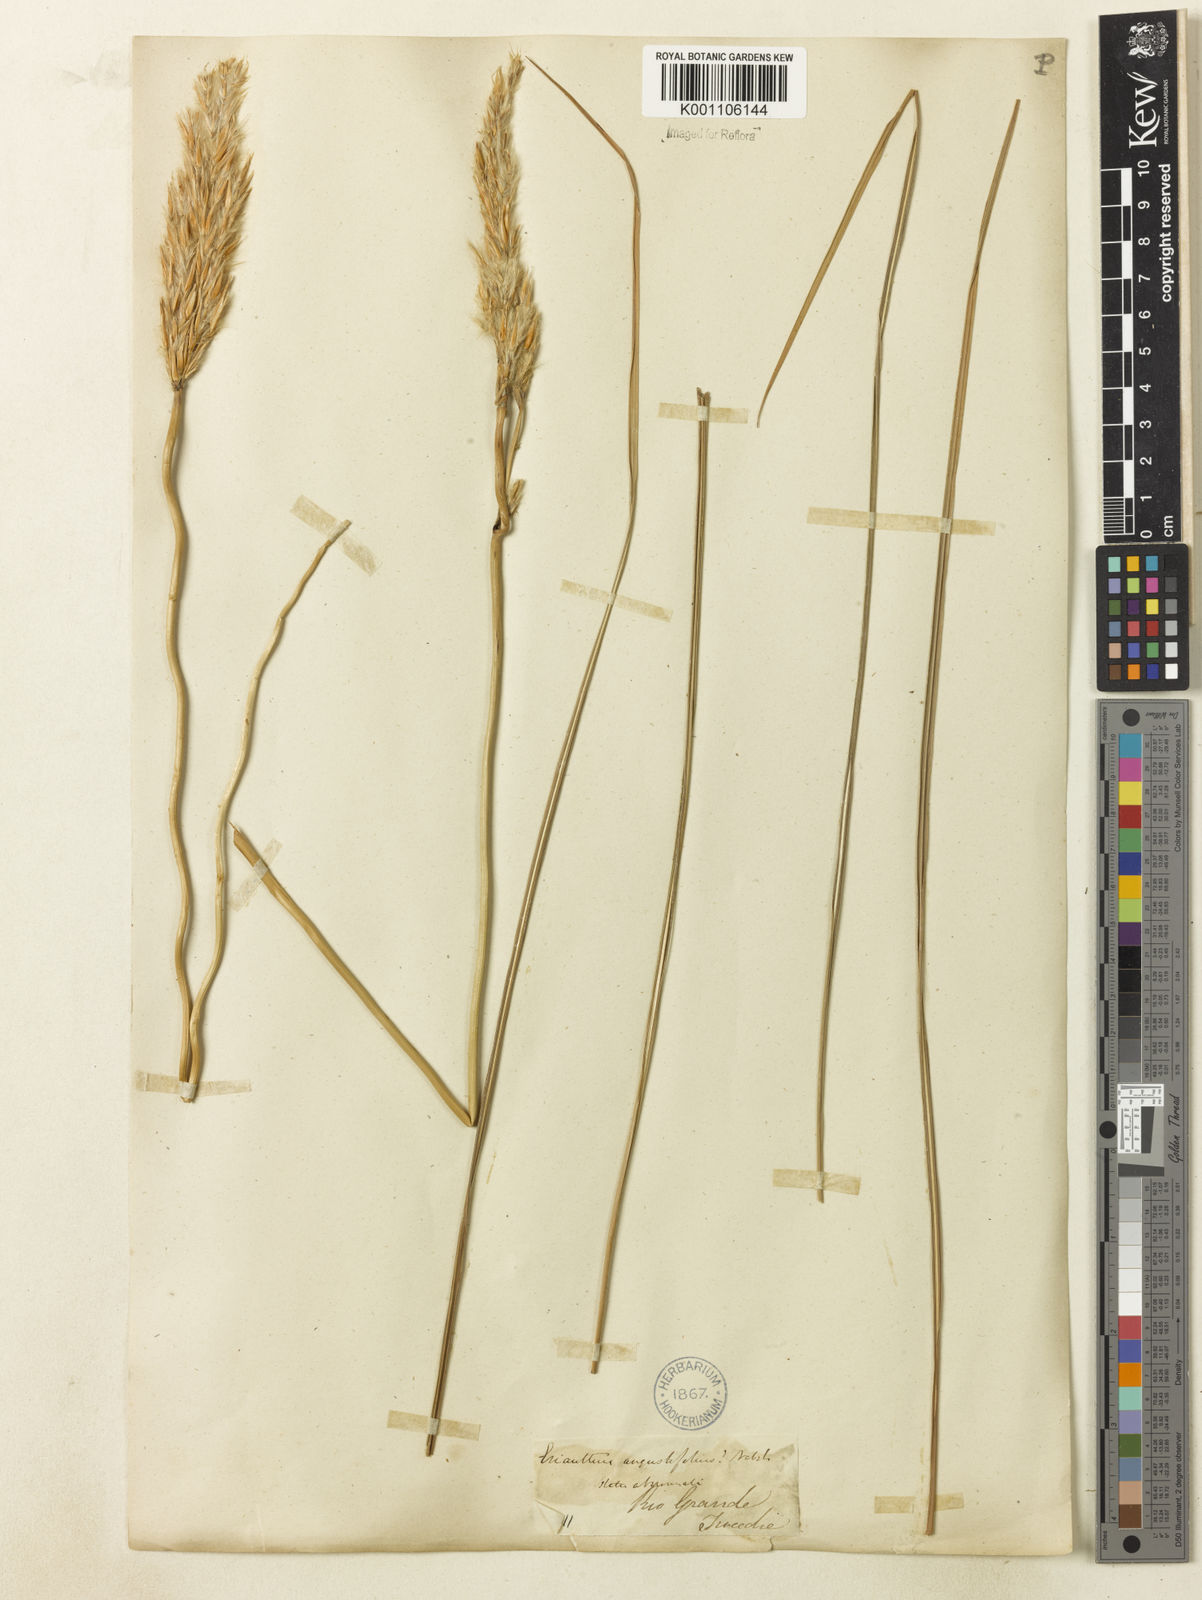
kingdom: Plantae
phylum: Tracheophyta
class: Liliopsida
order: Poales
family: Poaceae
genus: Saccharum
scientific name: Saccharum
